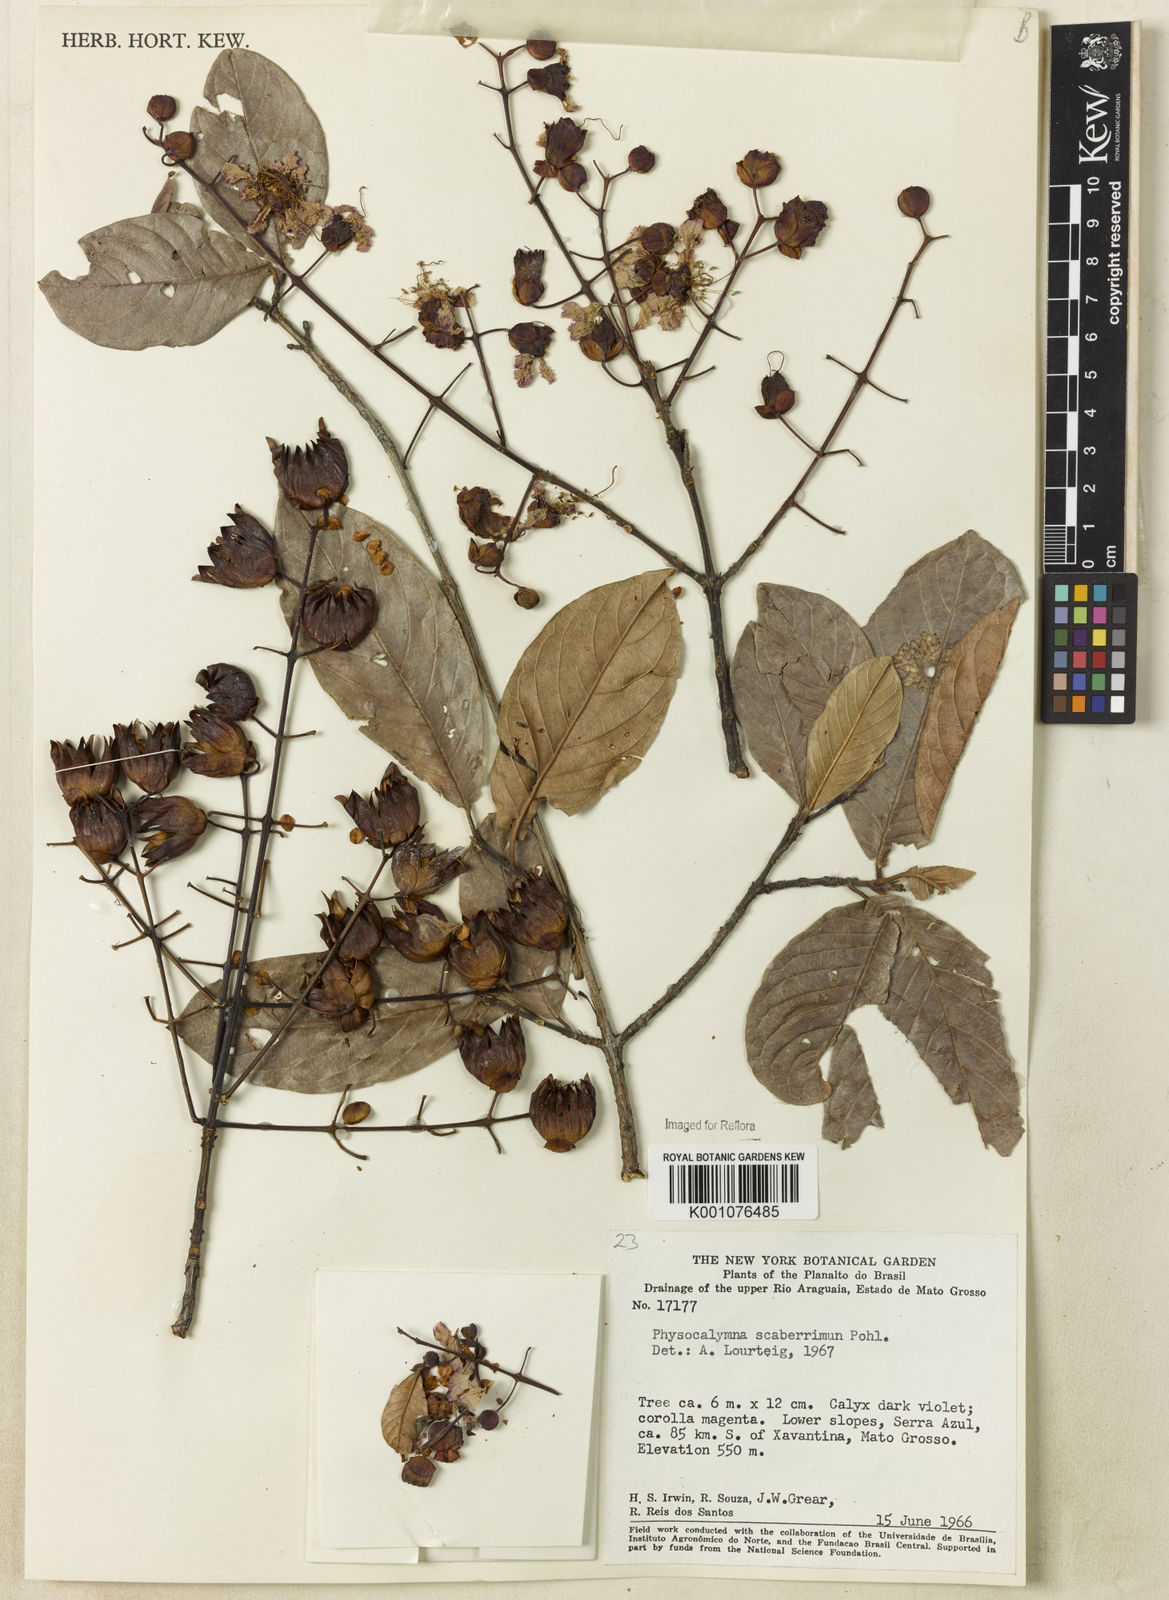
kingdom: Plantae
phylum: Tracheophyta
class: Magnoliopsida
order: Myrtales
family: Lythraceae
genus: Physocalymma
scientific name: Physocalymma scaberrimum
